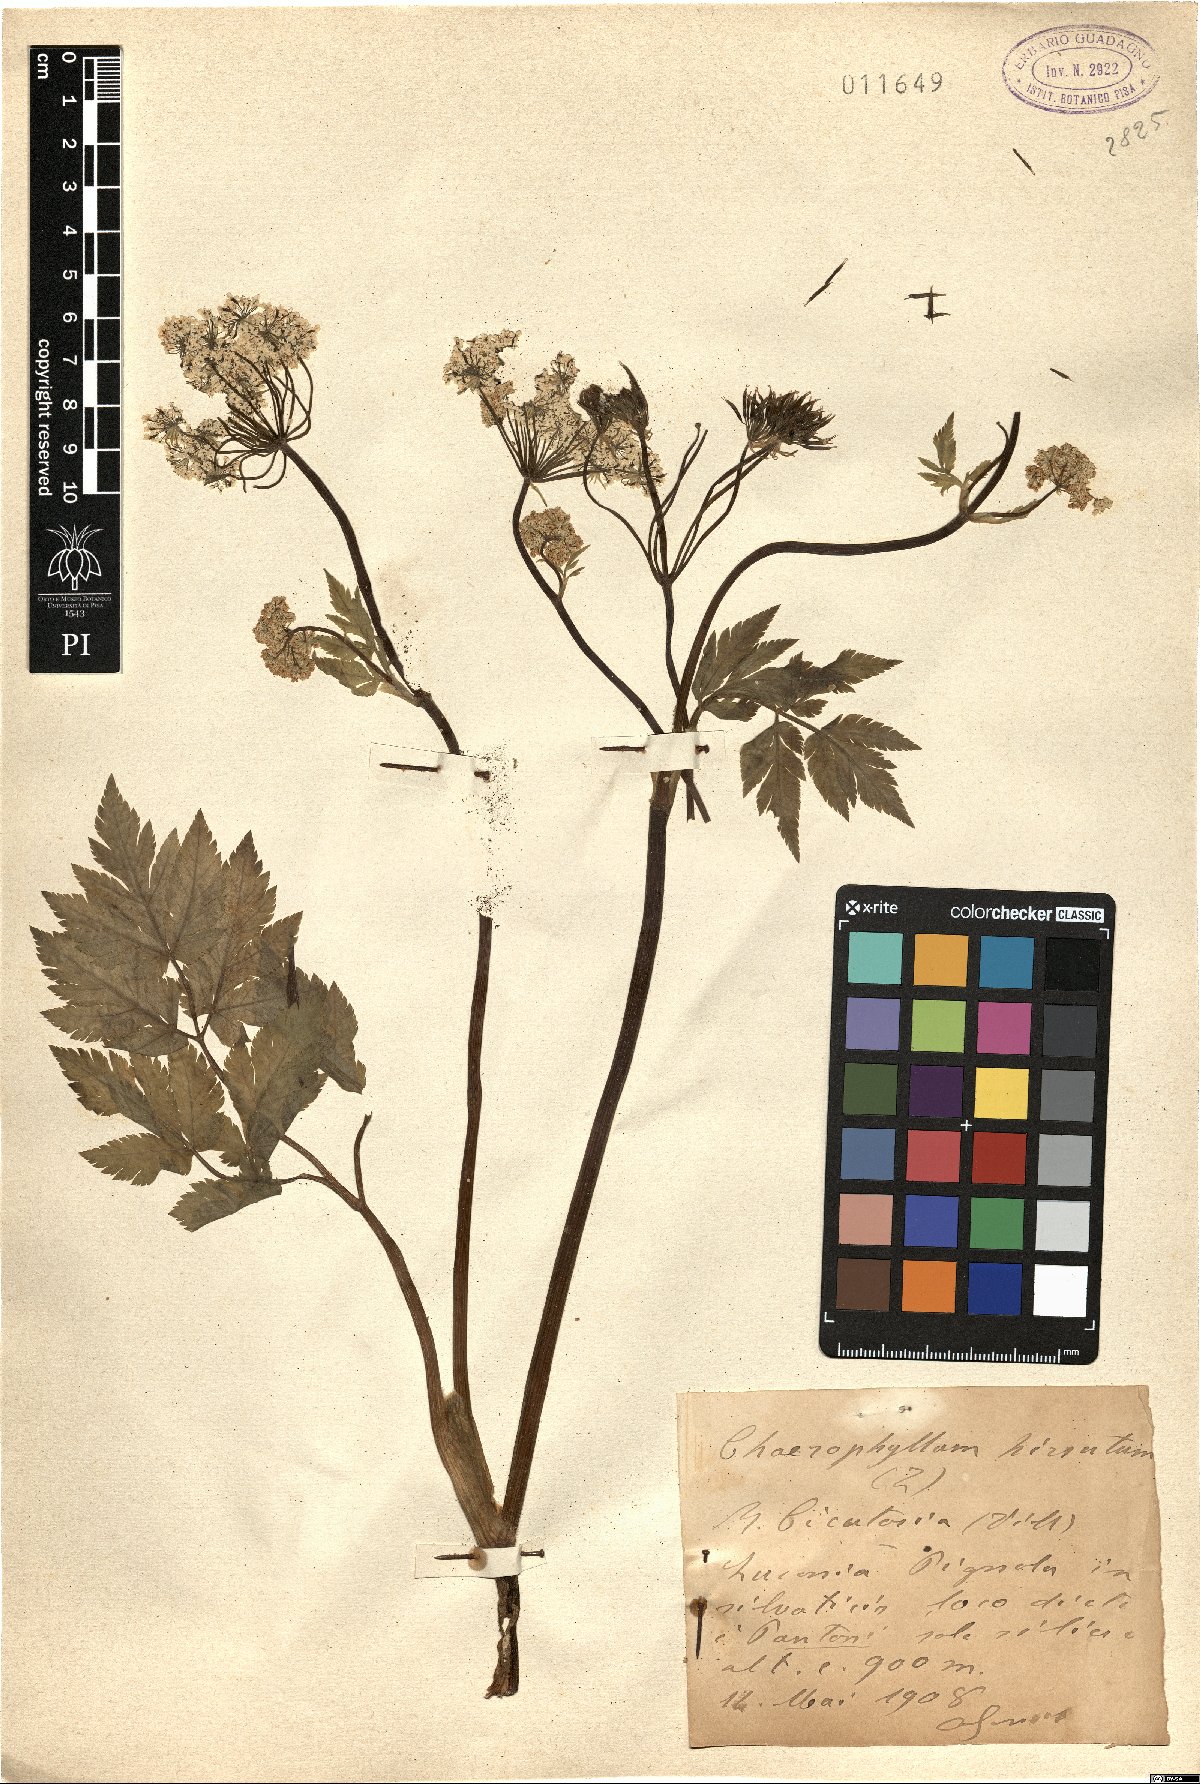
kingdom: Plantae
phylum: Tracheophyta
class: Magnoliopsida
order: Apiales
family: Apiaceae
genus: Chaerophyllum
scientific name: Chaerophyllum hirsutum
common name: Hairy chervil
